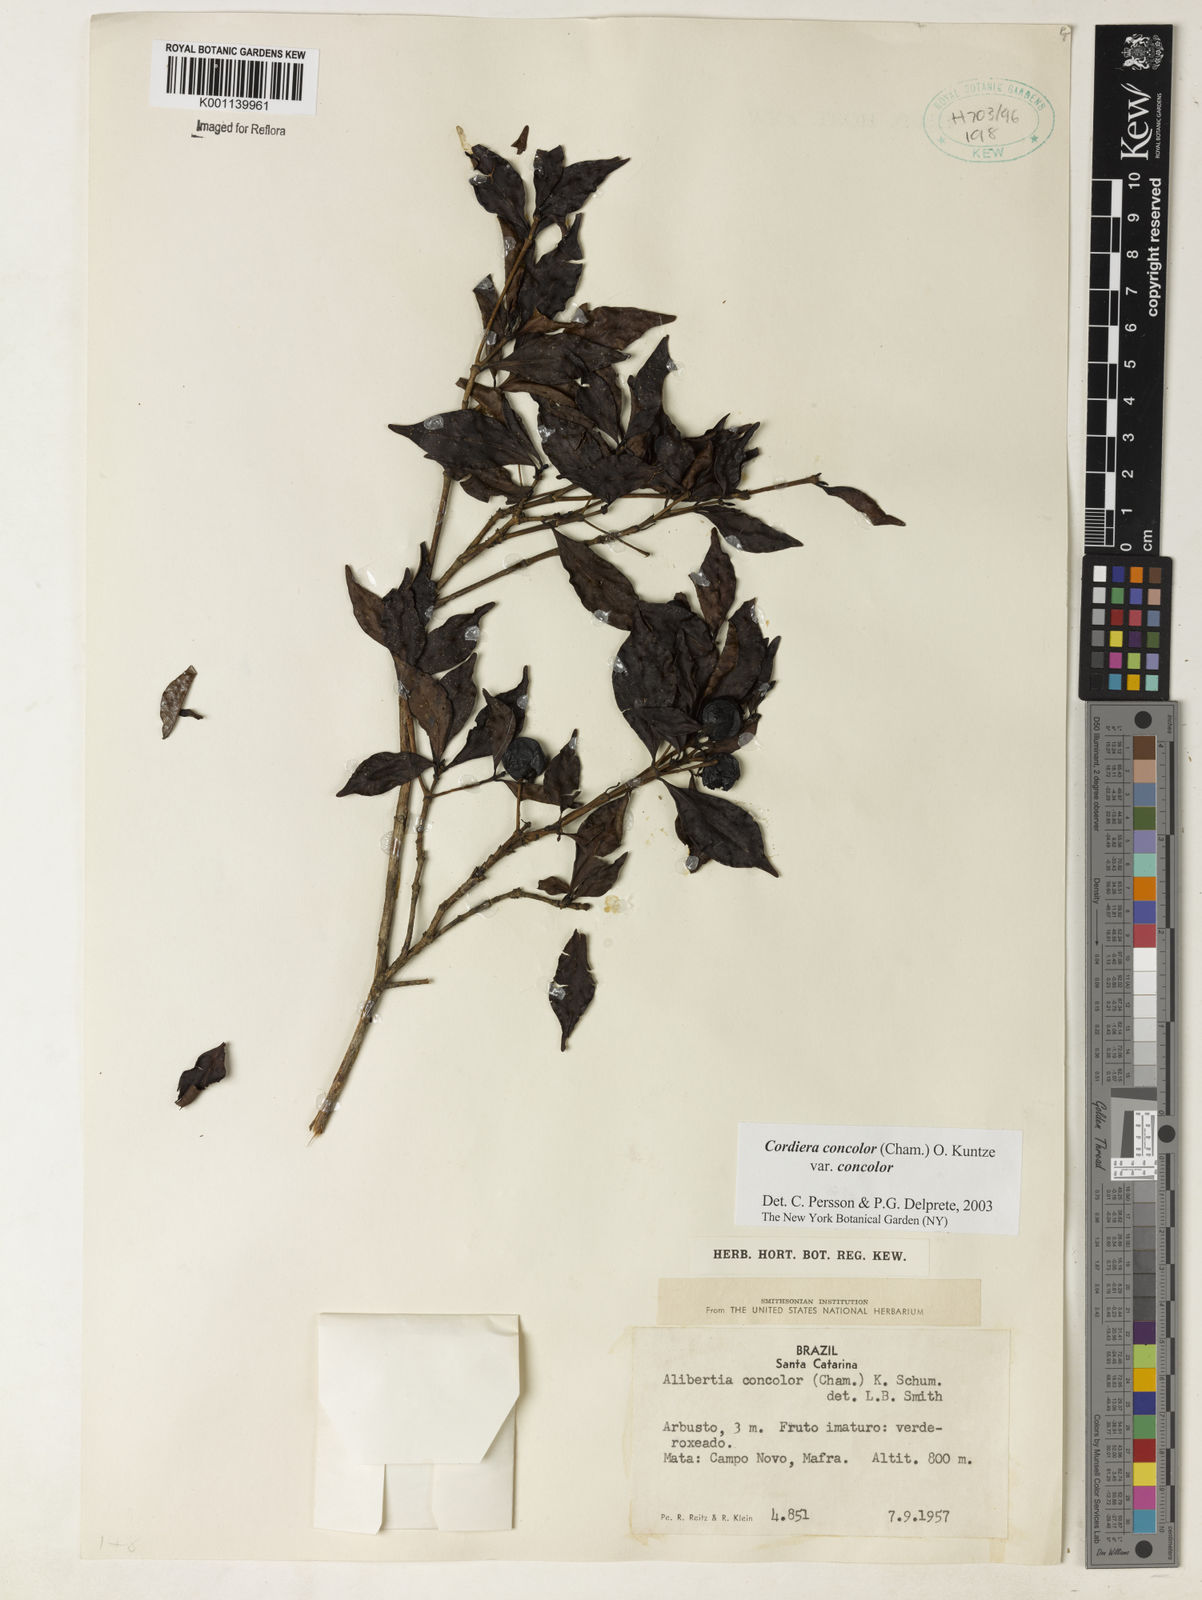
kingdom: Plantae
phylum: Tracheophyta
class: Magnoliopsida
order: Gentianales
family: Rubiaceae
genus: Cordiera
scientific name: Cordiera concolor
